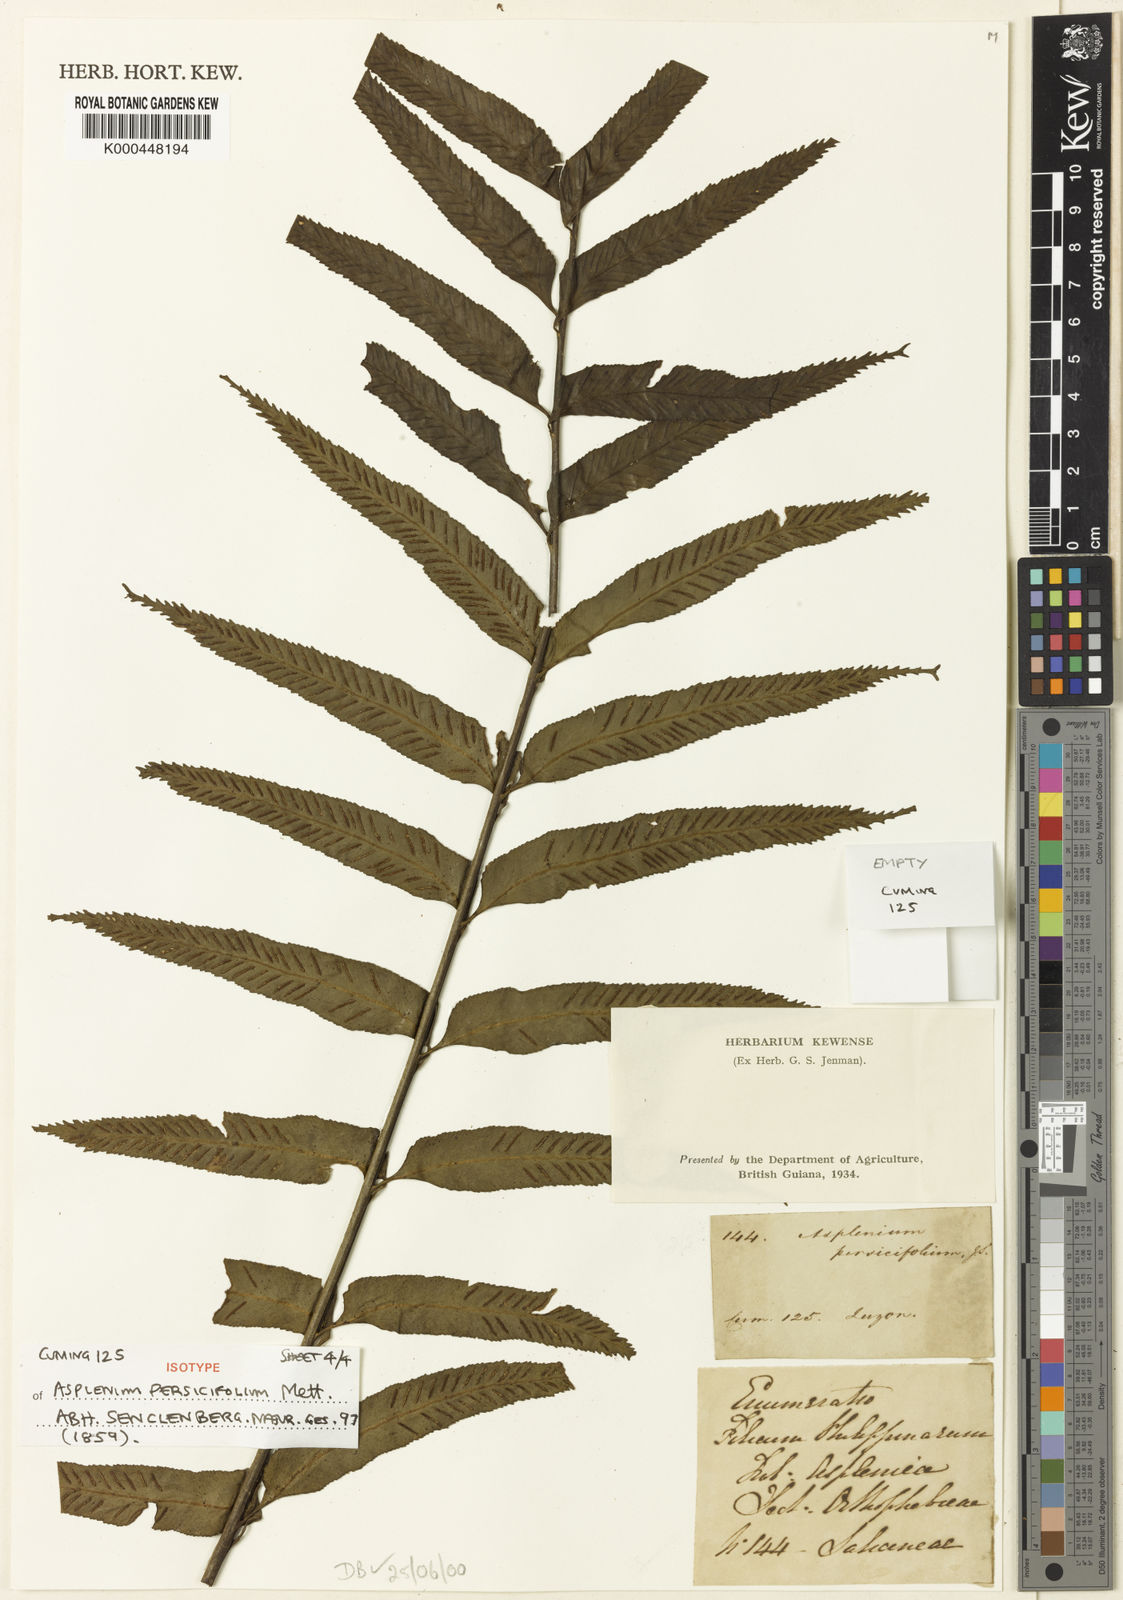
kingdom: Plantae
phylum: Tracheophyta
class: Polypodiopsida
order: Polypodiales
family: Aspleniaceae
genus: Asplenium
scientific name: Asplenium
